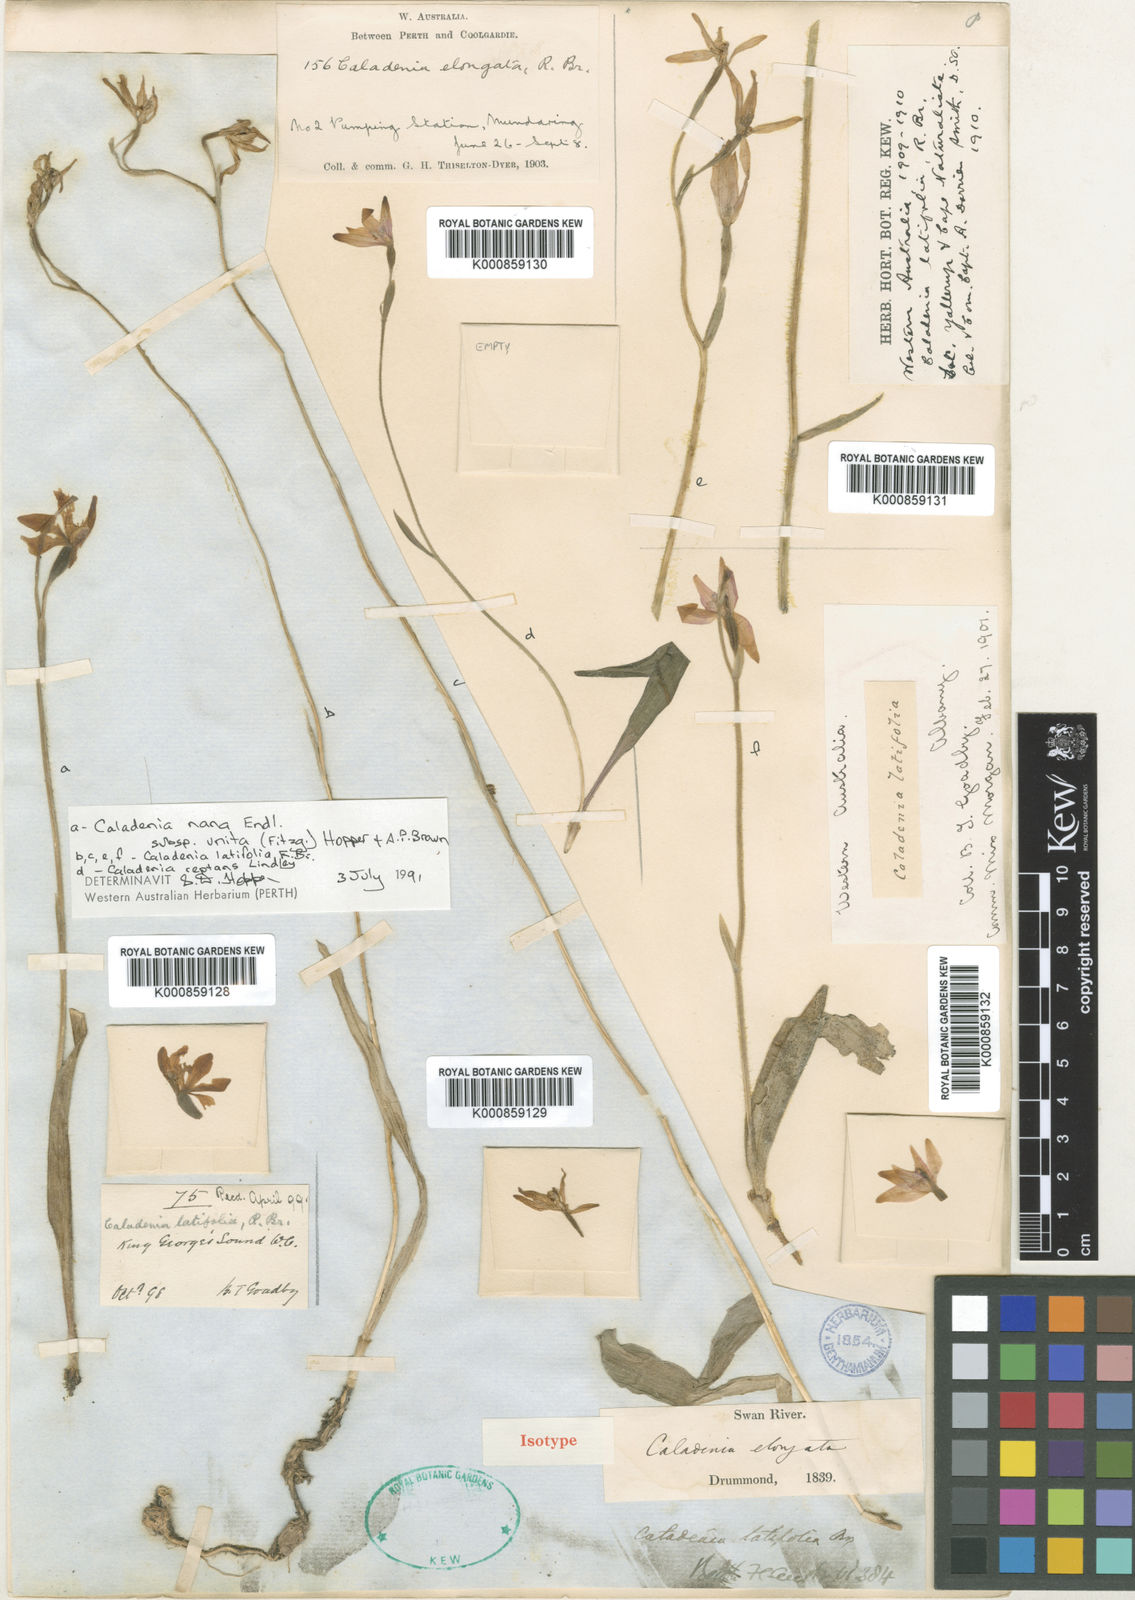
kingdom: Plantae
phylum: Tracheophyta
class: Liliopsida
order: Asparagales
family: Orchidaceae
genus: Caladenia
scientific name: Caladenia latifolia
